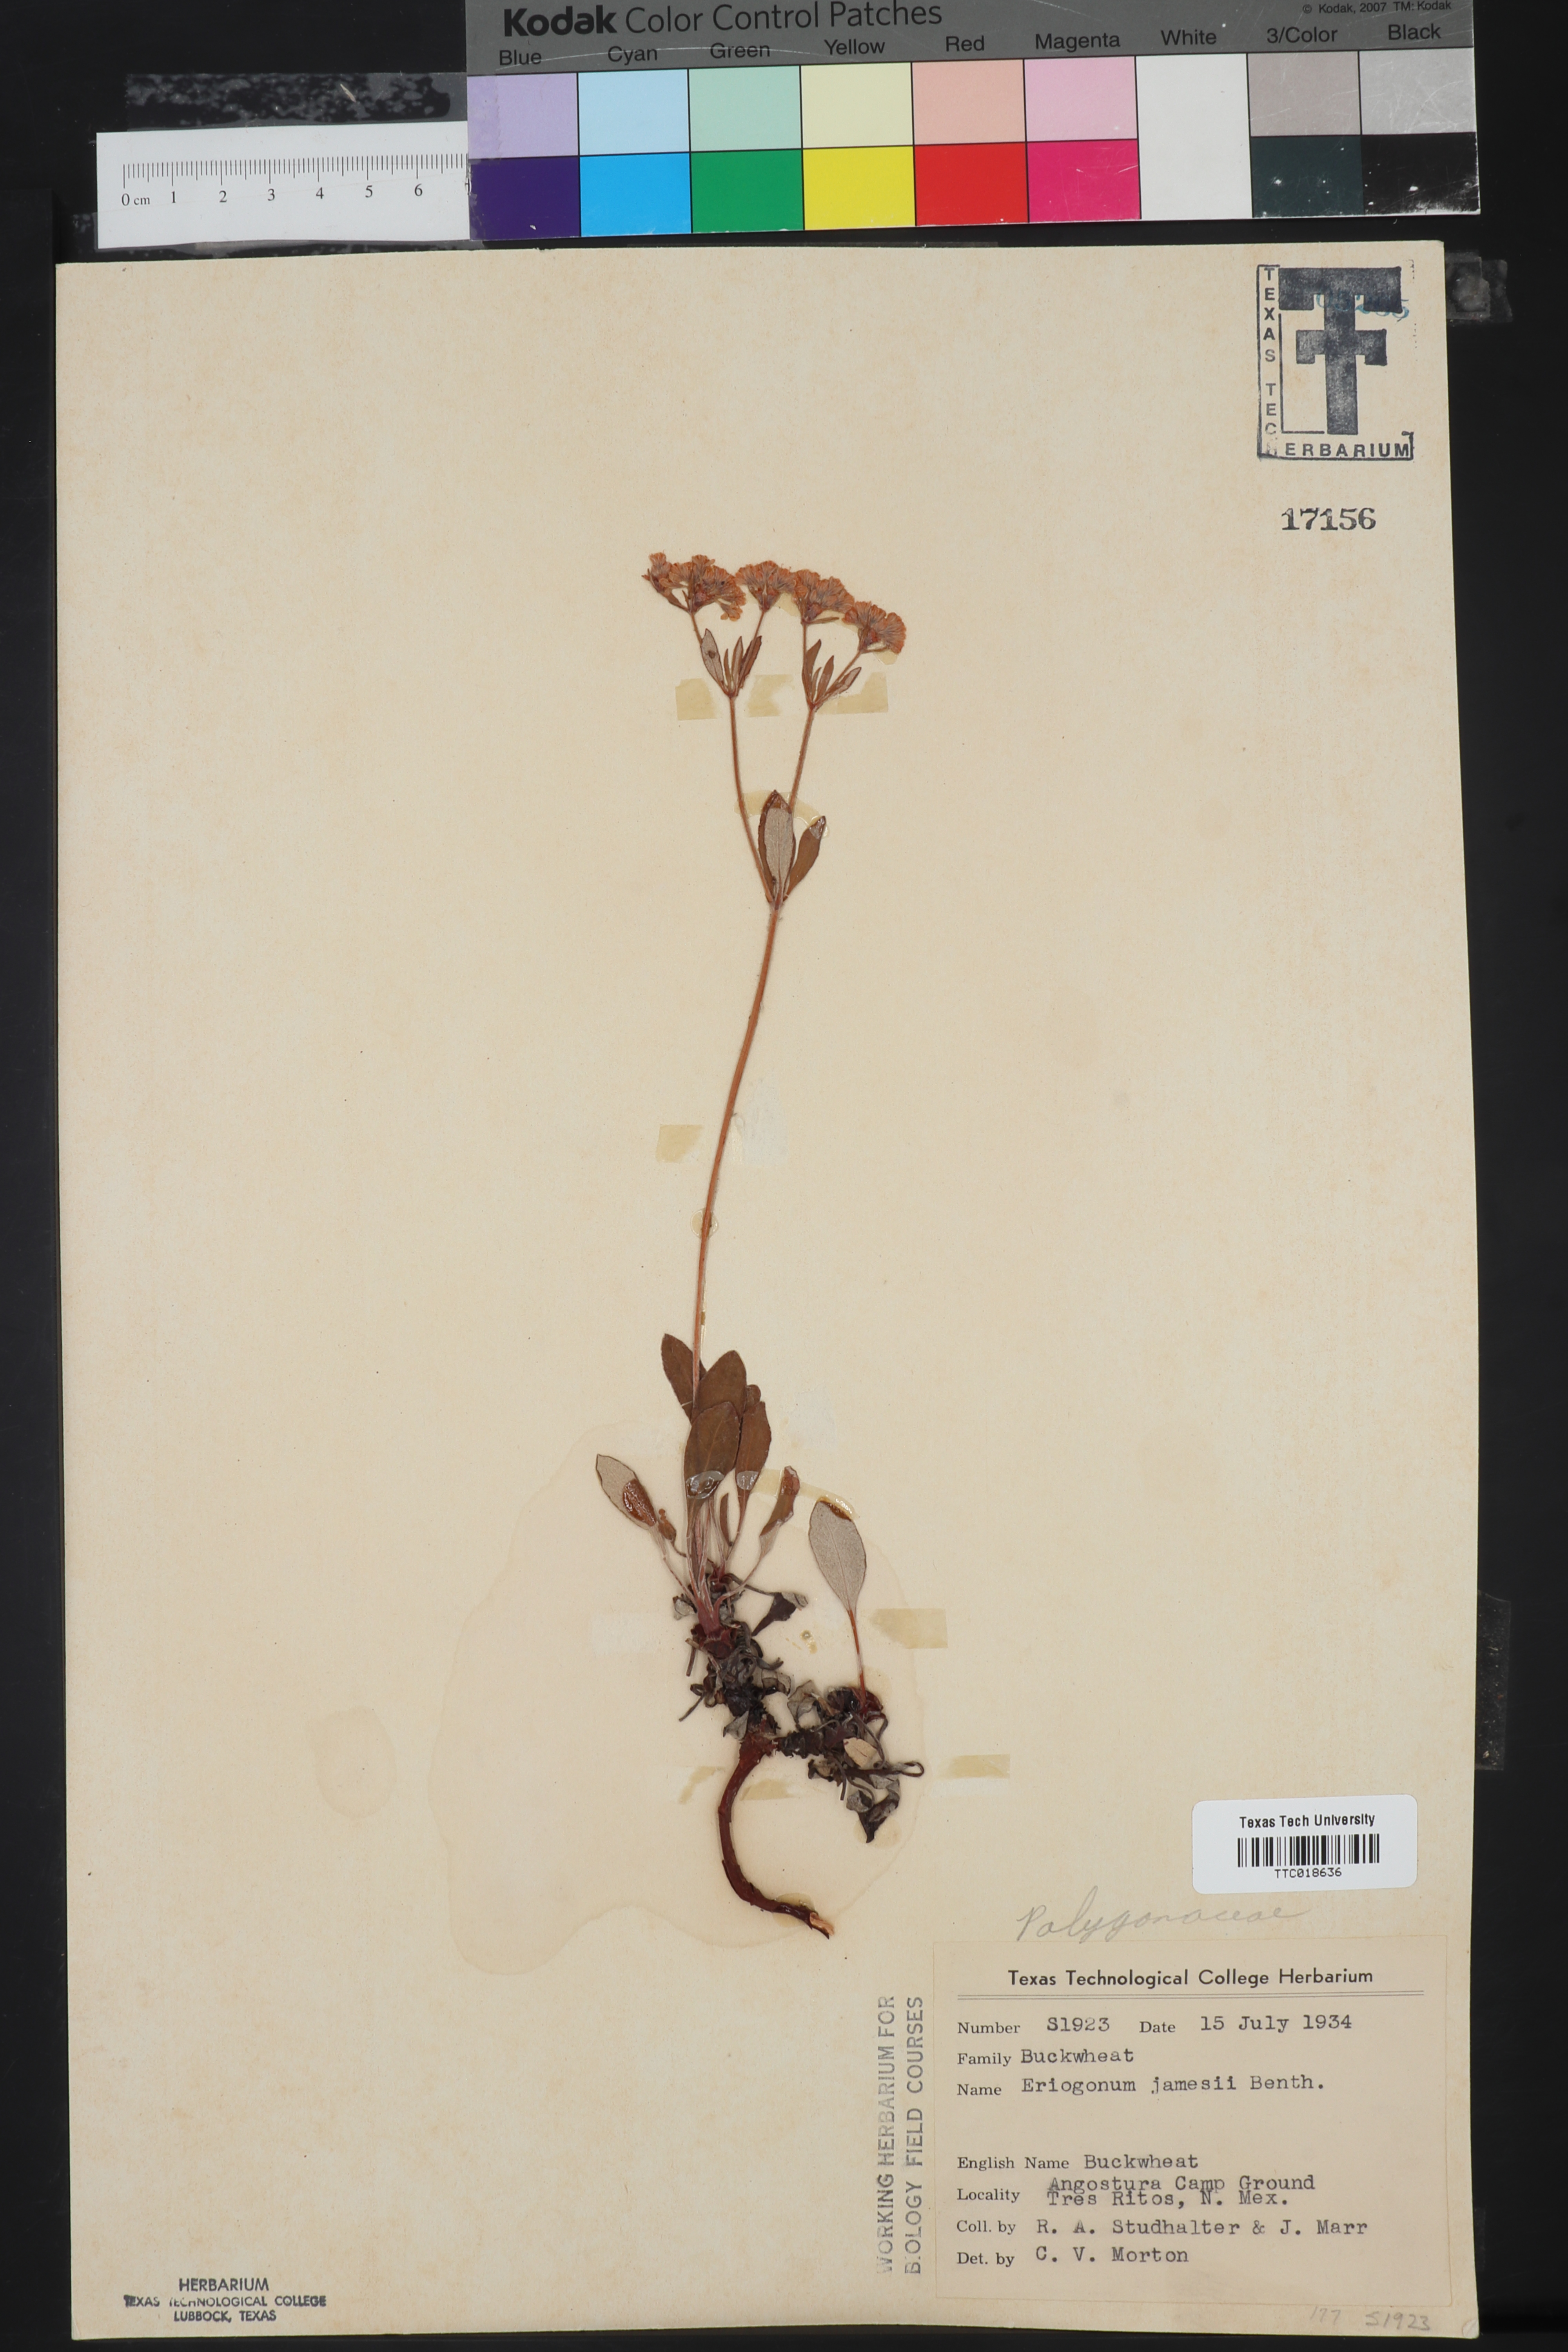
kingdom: Plantae
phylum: Tracheophyta
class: Magnoliopsida
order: Caryophyllales
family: Polygonaceae
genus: Eriogonum
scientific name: Eriogonum jamesii
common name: Antelope-sage
